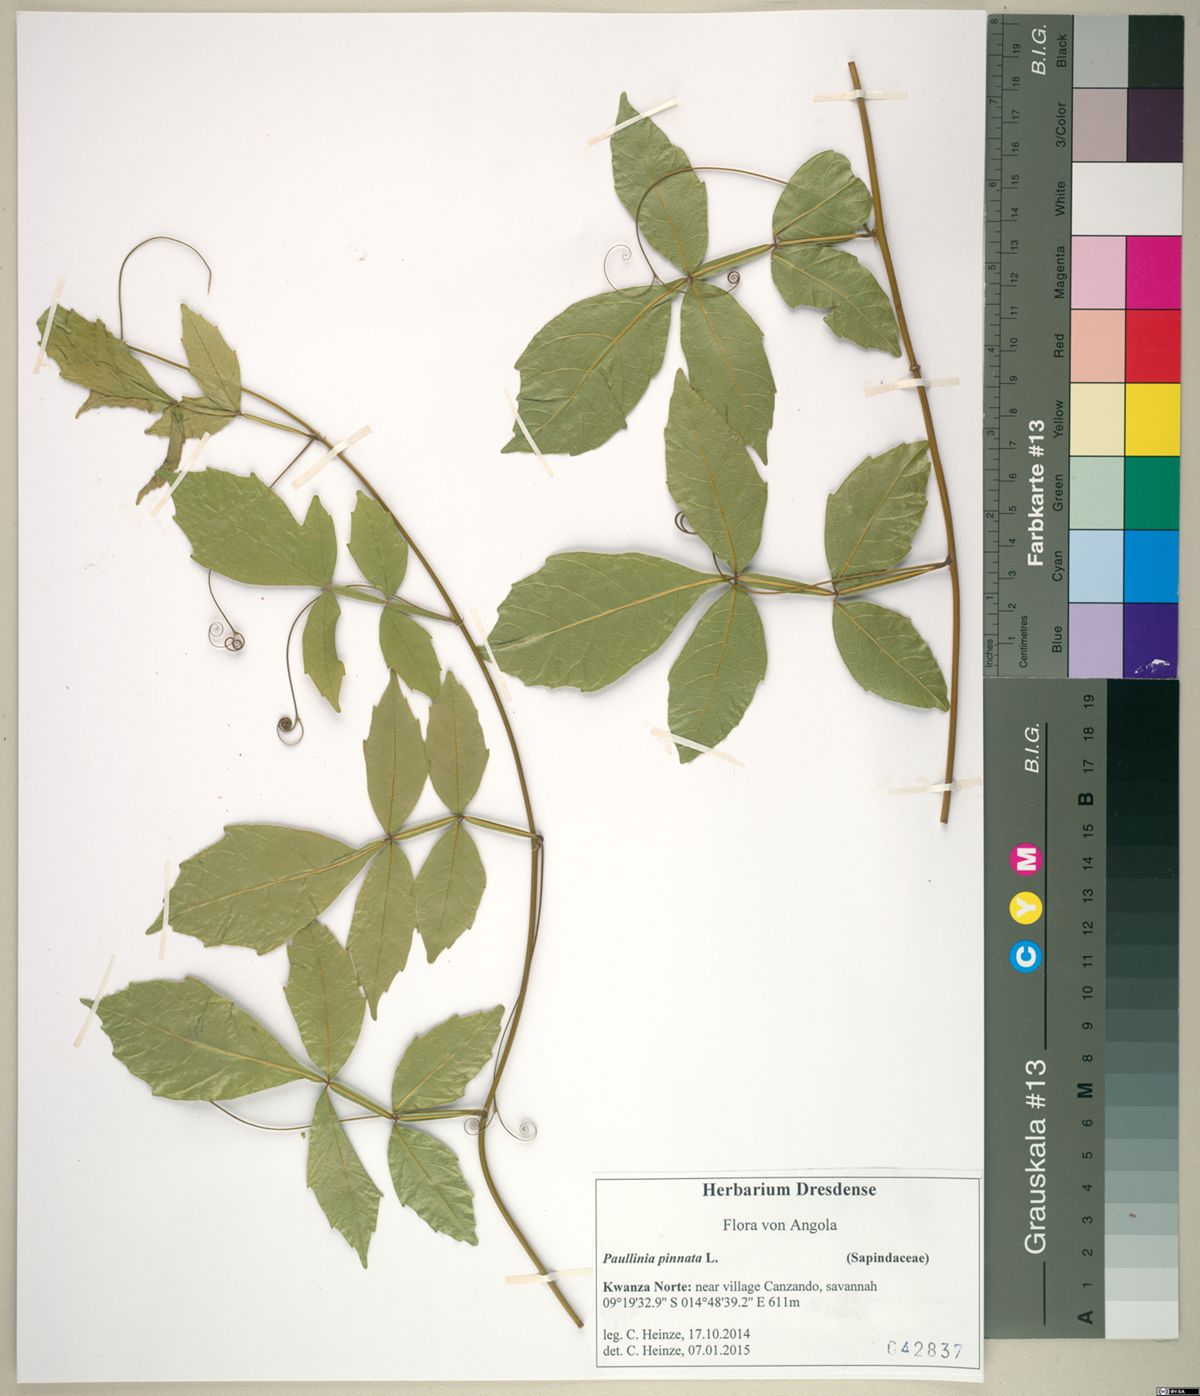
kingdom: Plantae
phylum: Tracheophyta
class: Magnoliopsida
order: Sapindales
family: Sapindaceae
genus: Paullinia
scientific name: Paullinia pinnata
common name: Barbasco
